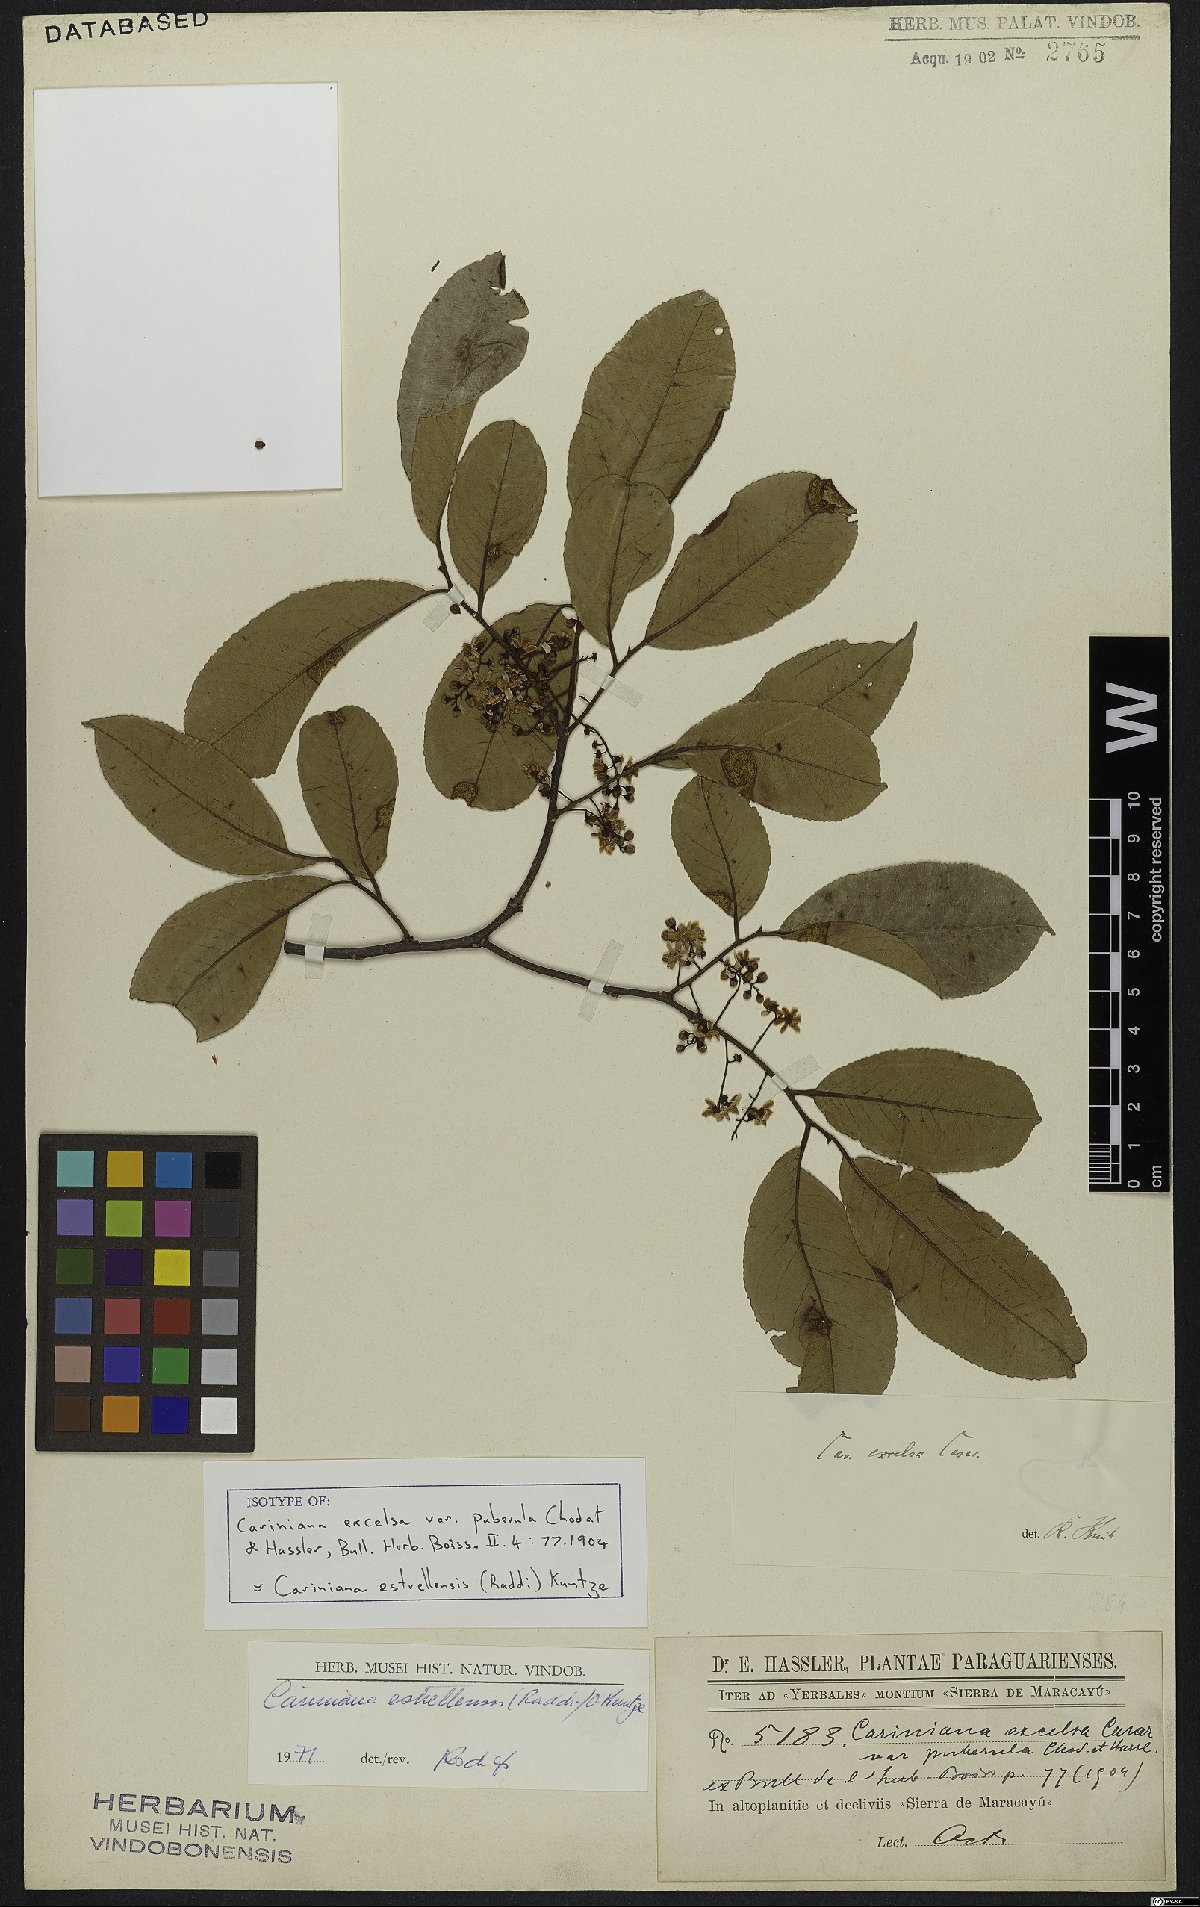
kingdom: Plantae
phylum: Tracheophyta
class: Magnoliopsida
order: Ericales
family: Lecythidaceae
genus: Cariniana
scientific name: Cariniana estrellensis
